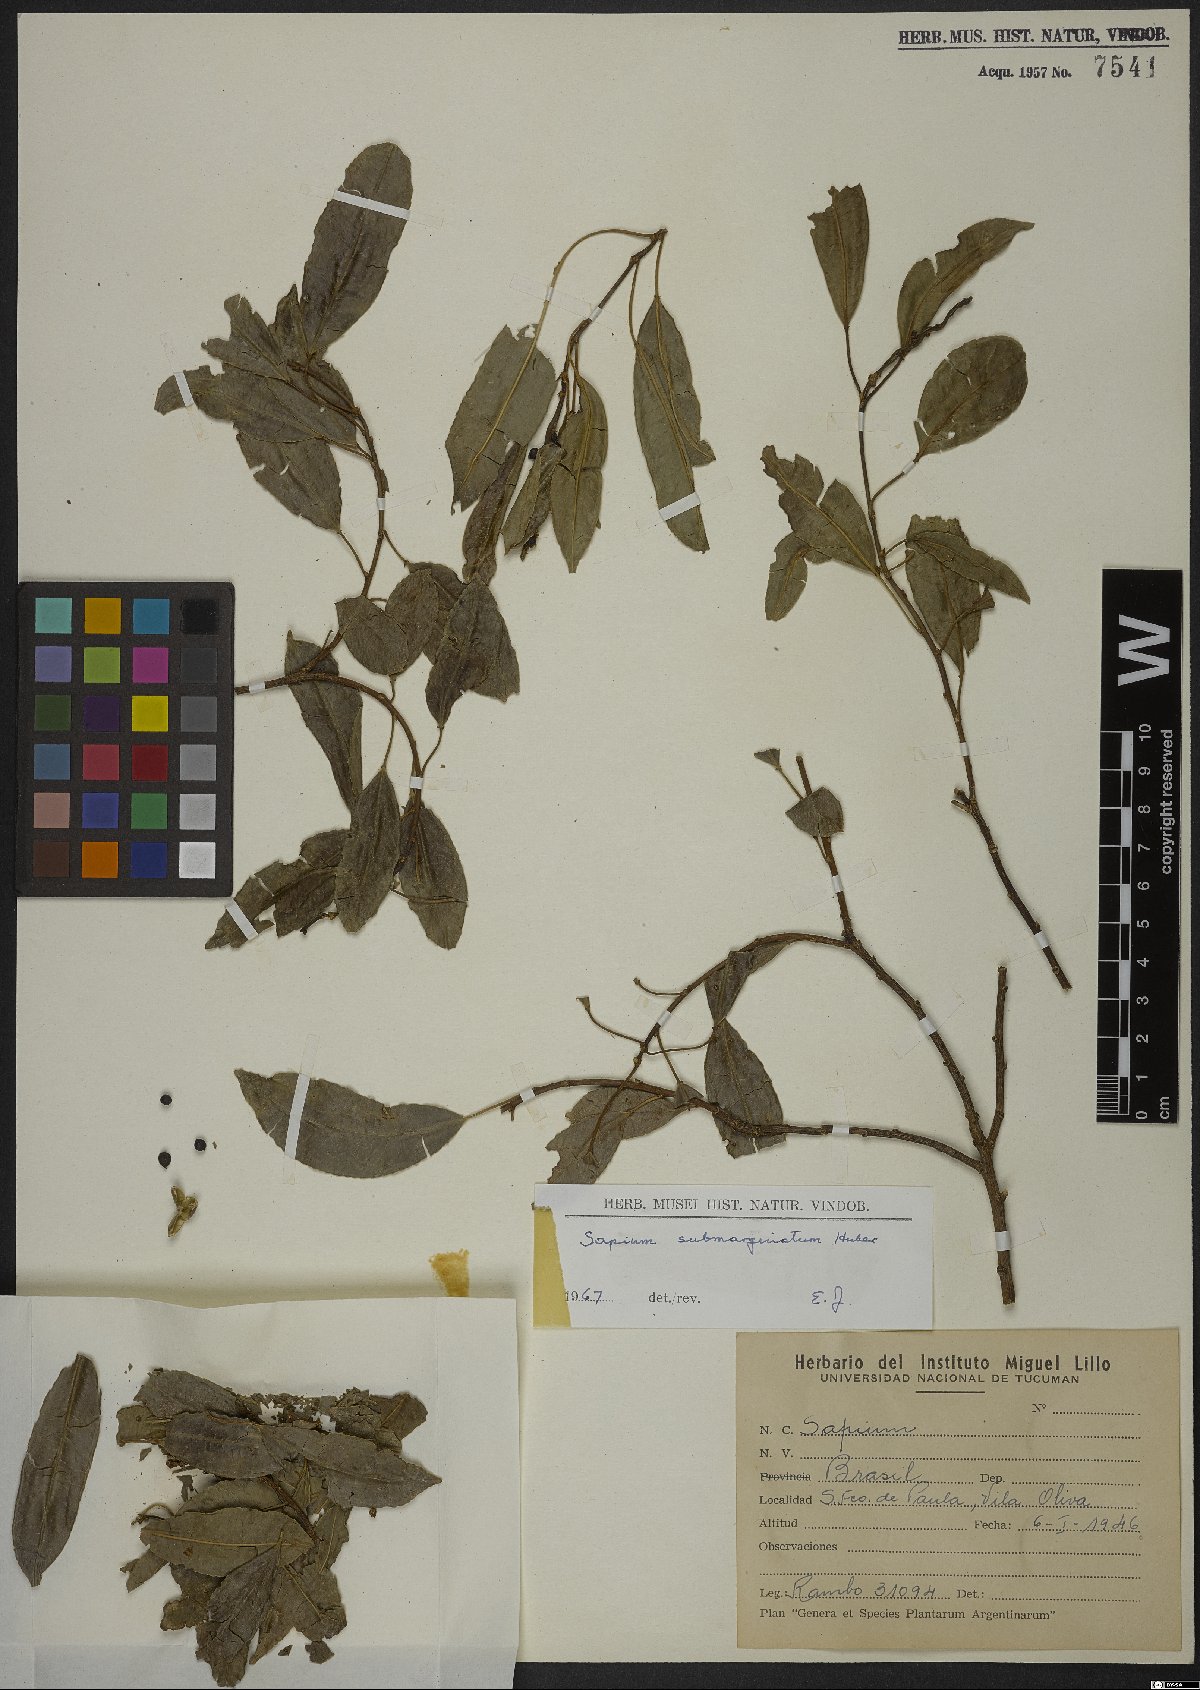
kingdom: Plantae
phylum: Tracheophyta
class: Magnoliopsida
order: Malpighiales
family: Euphorbiaceae
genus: Sapium
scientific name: Sapium glandulosum
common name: Milktree
